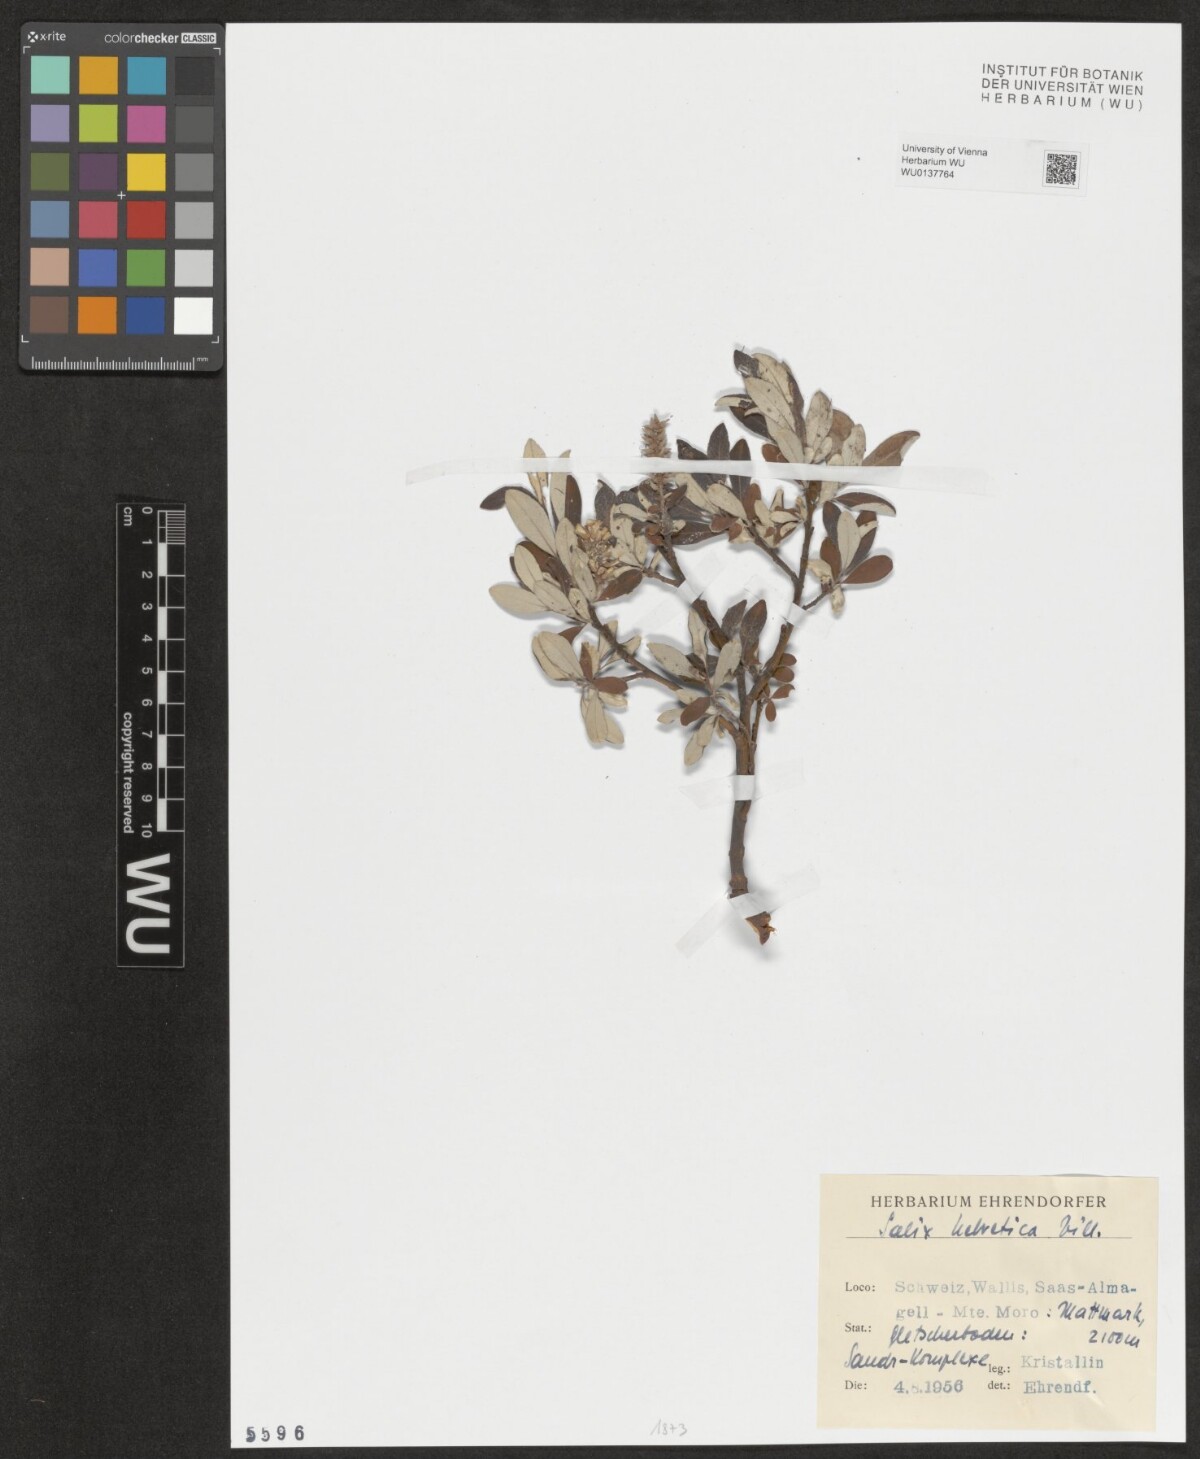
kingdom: Plantae
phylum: Tracheophyta
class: Magnoliopsida
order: Malpighiales
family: Salicaceae
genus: Salix
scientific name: Salix helvetica
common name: Swiss willow
